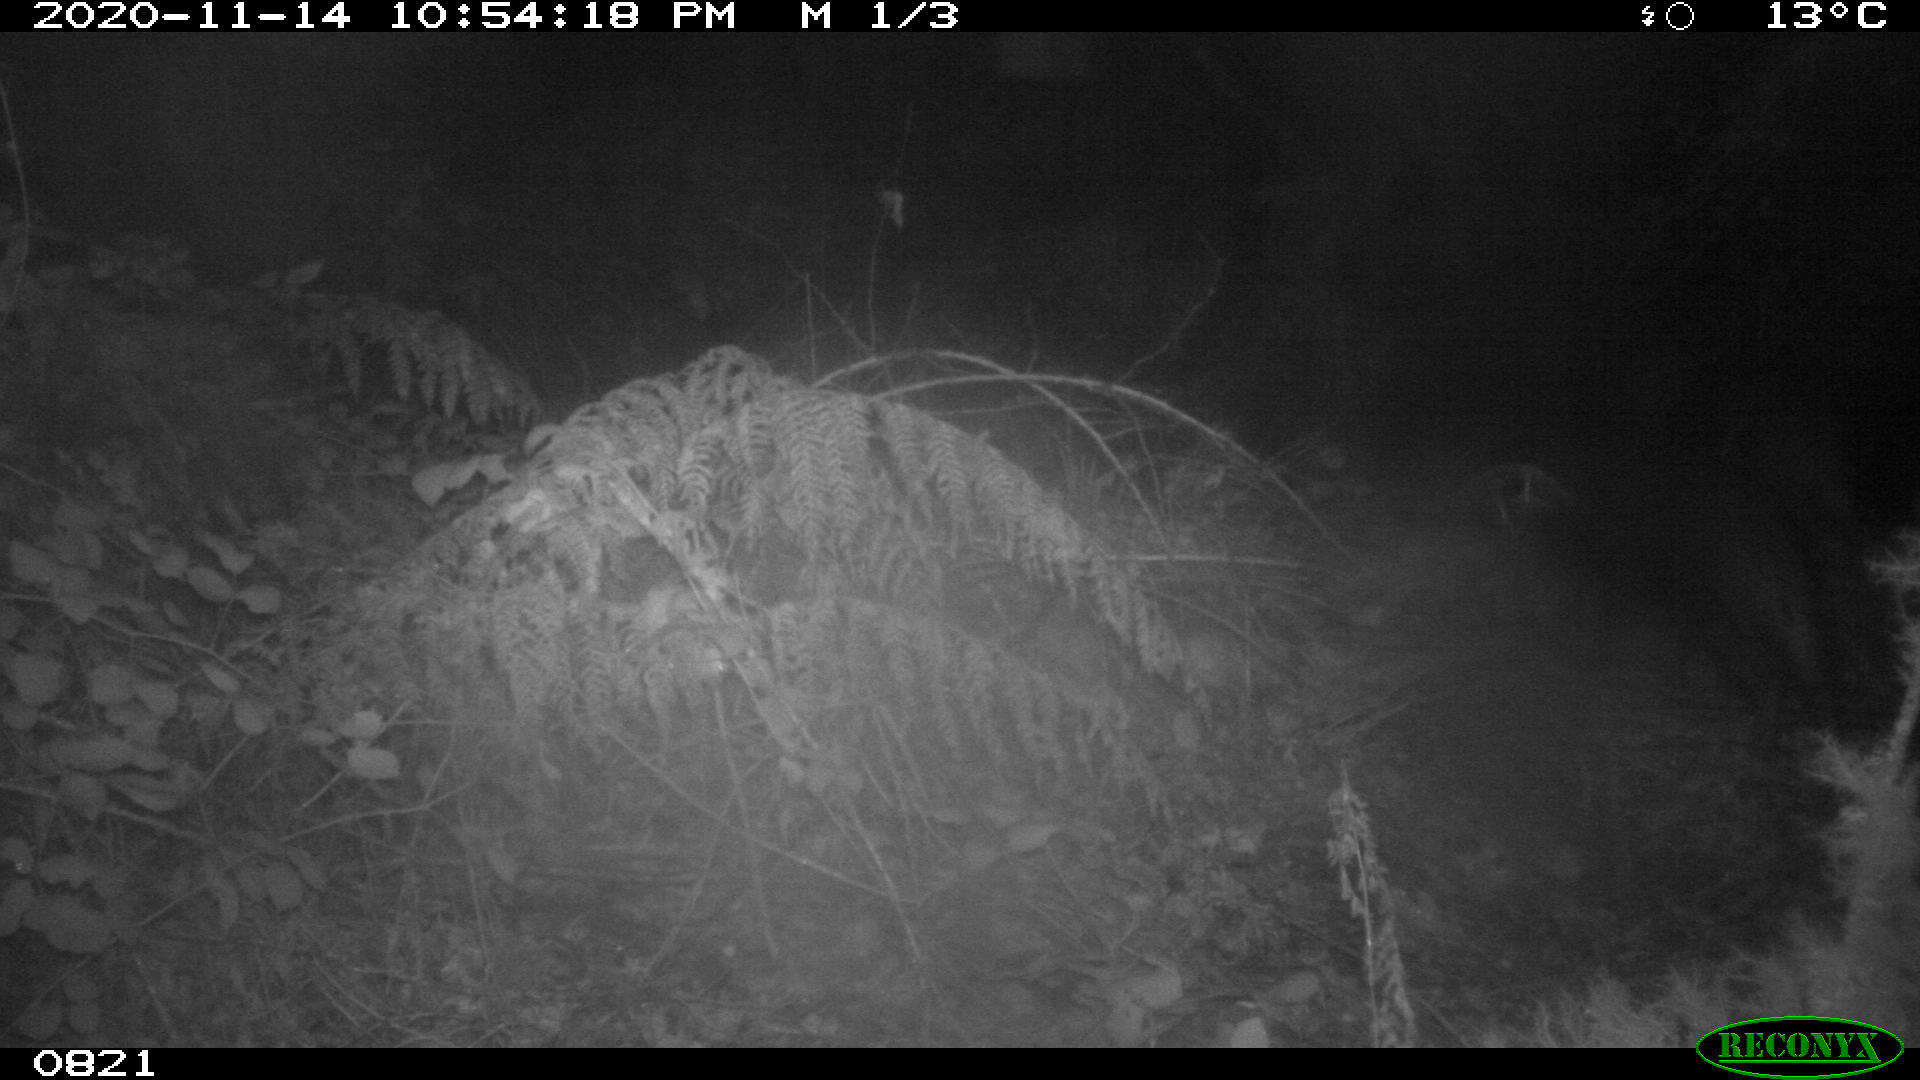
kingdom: Animalia
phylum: Chordata
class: Mammalia
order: Artiodactyla
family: Suidae
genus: Sus
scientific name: Sus scrofa
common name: Wild boar
